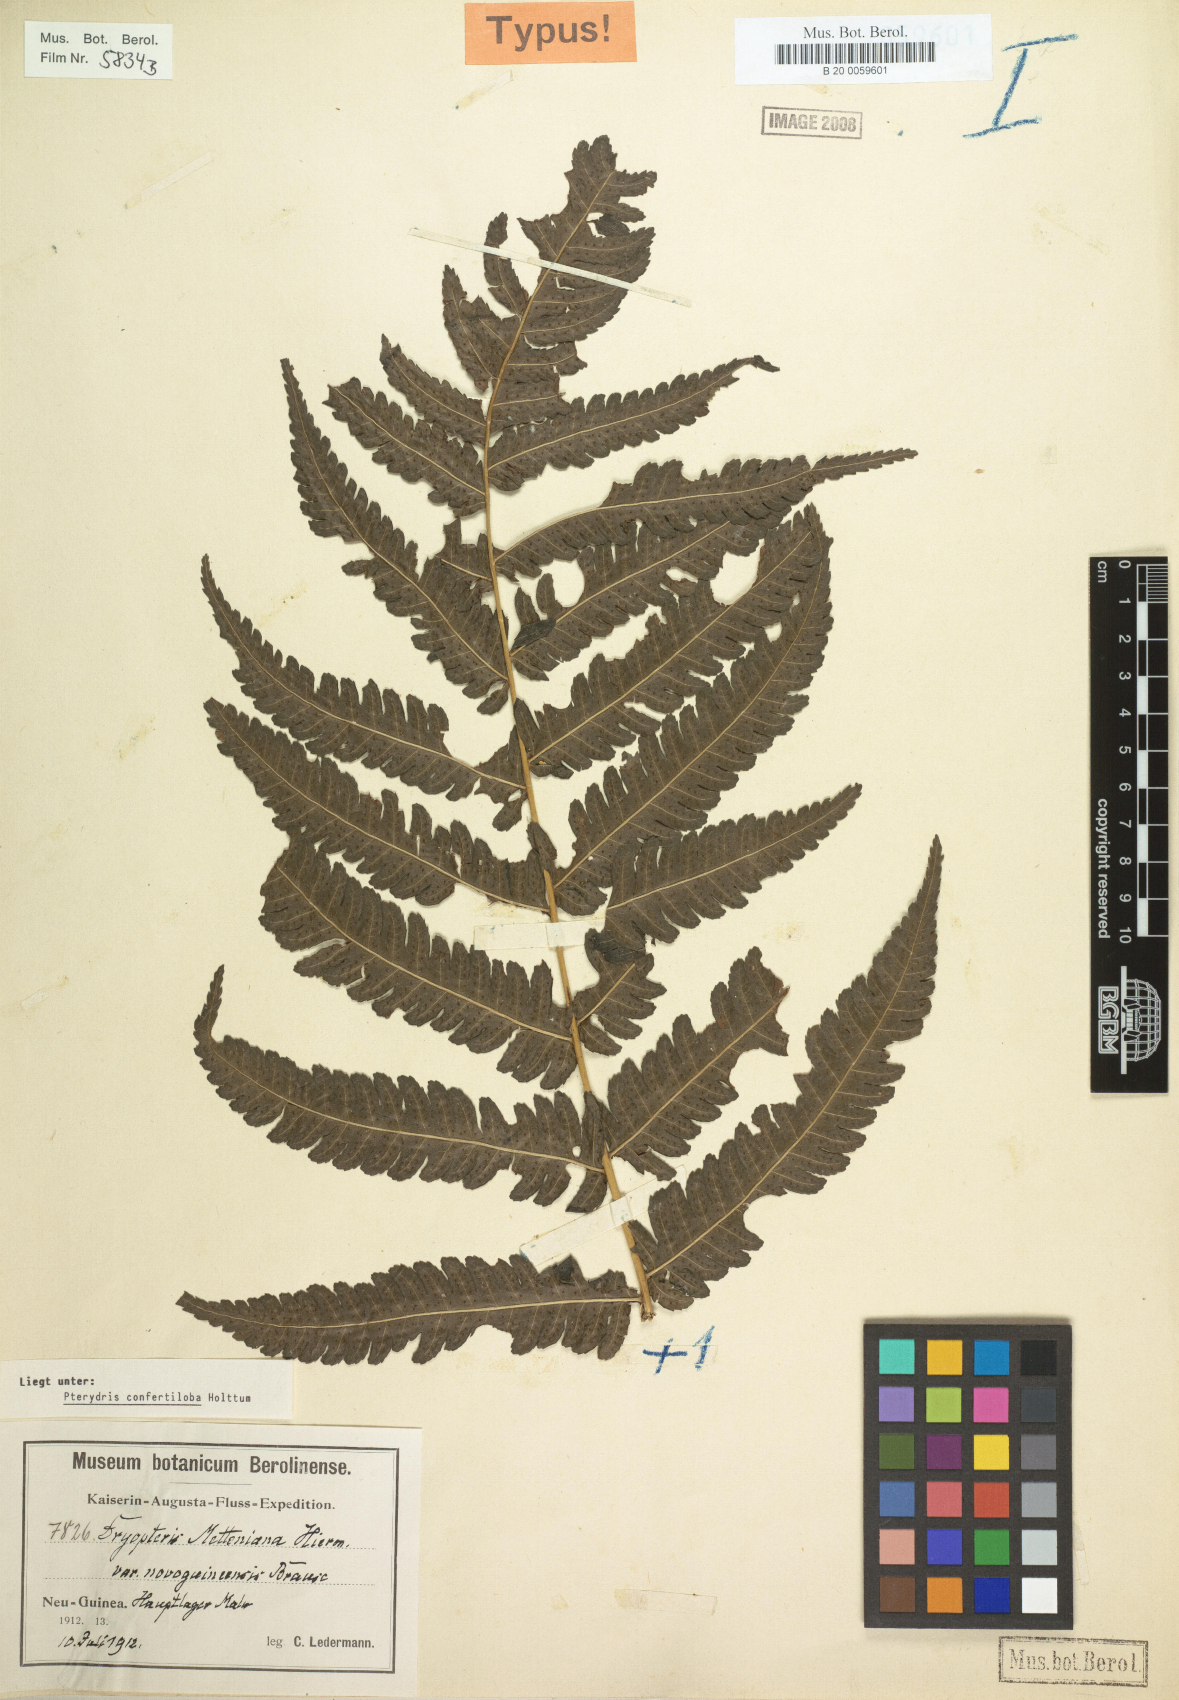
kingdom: Plantae
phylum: Tracheophyta
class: Polypodiopsida
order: Polypodiales
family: Tectariaceae
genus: Pteridrys
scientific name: Pteridrys confertiloba
